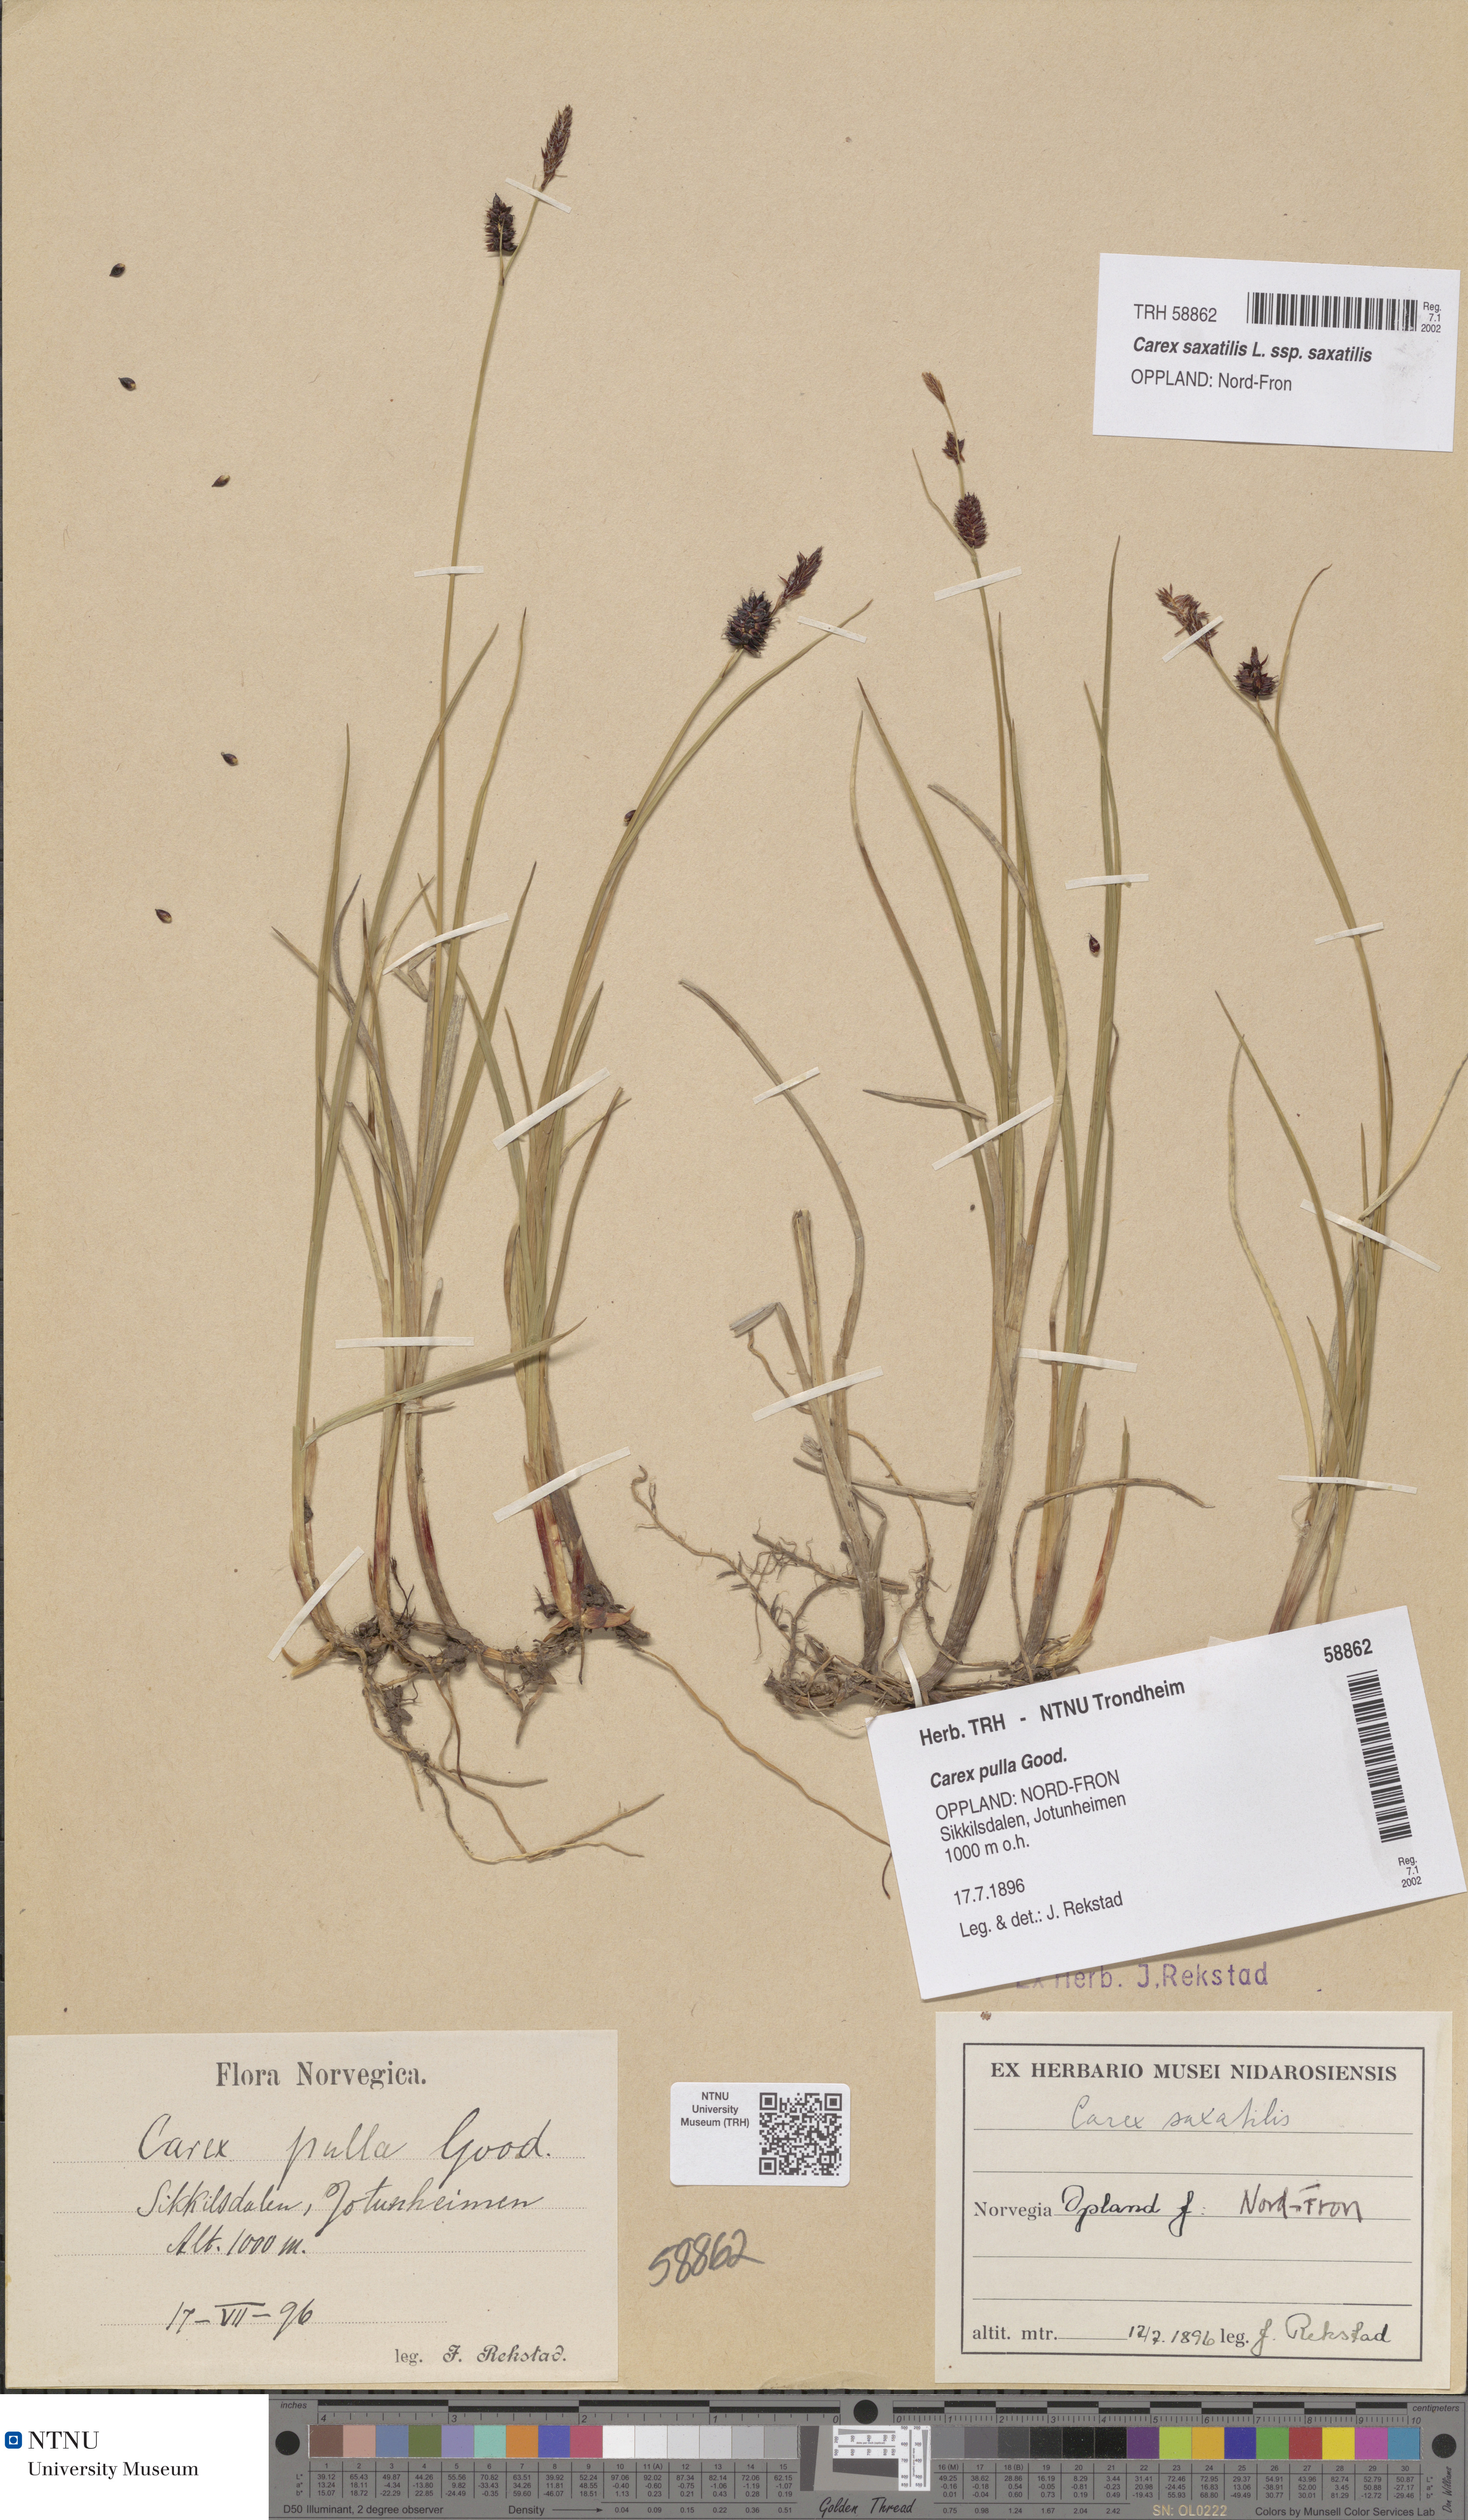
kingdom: Plantae
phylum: Tracheophyta
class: Liliopsida
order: Poales
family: Cyperaceae
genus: Carex
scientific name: Carex saxatilis
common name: Russet sedge
